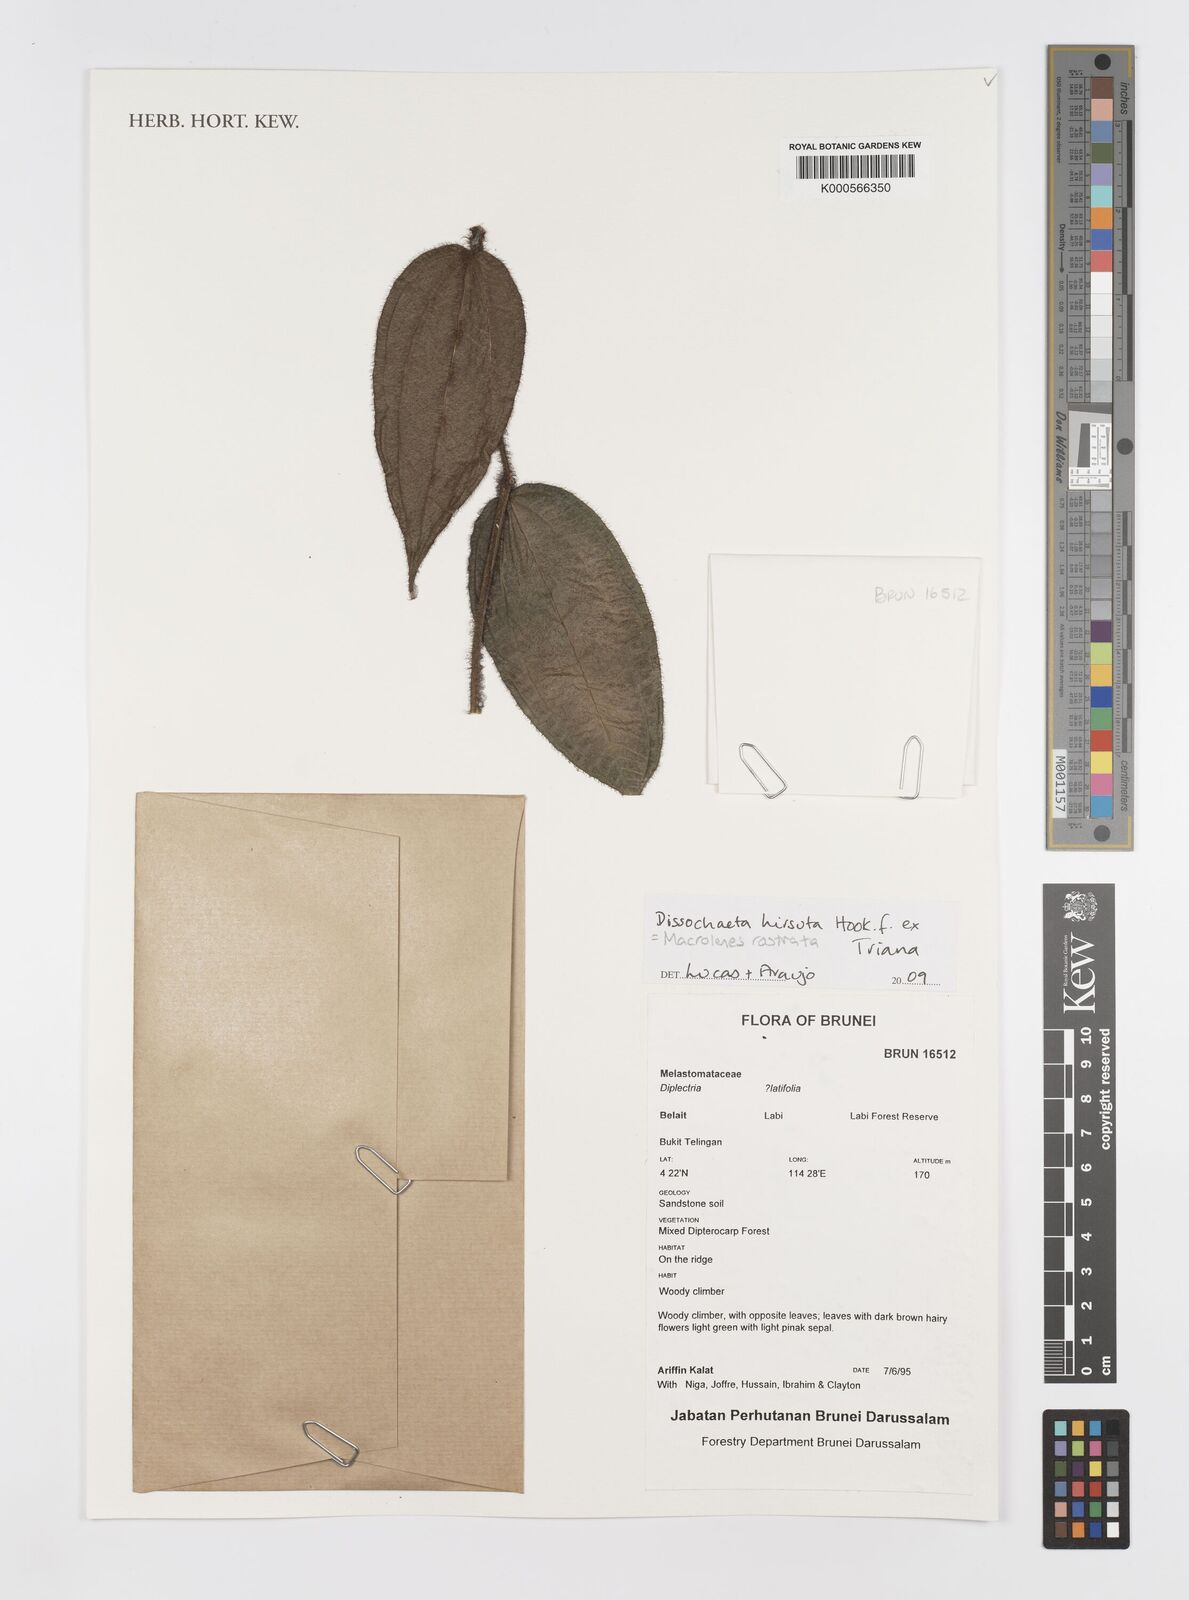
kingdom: Plantae
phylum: Tracheophyta
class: Magnoliopsida
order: Myrtales
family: Melastomataceae
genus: Macrolenes
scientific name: Macrolenes rostrata
